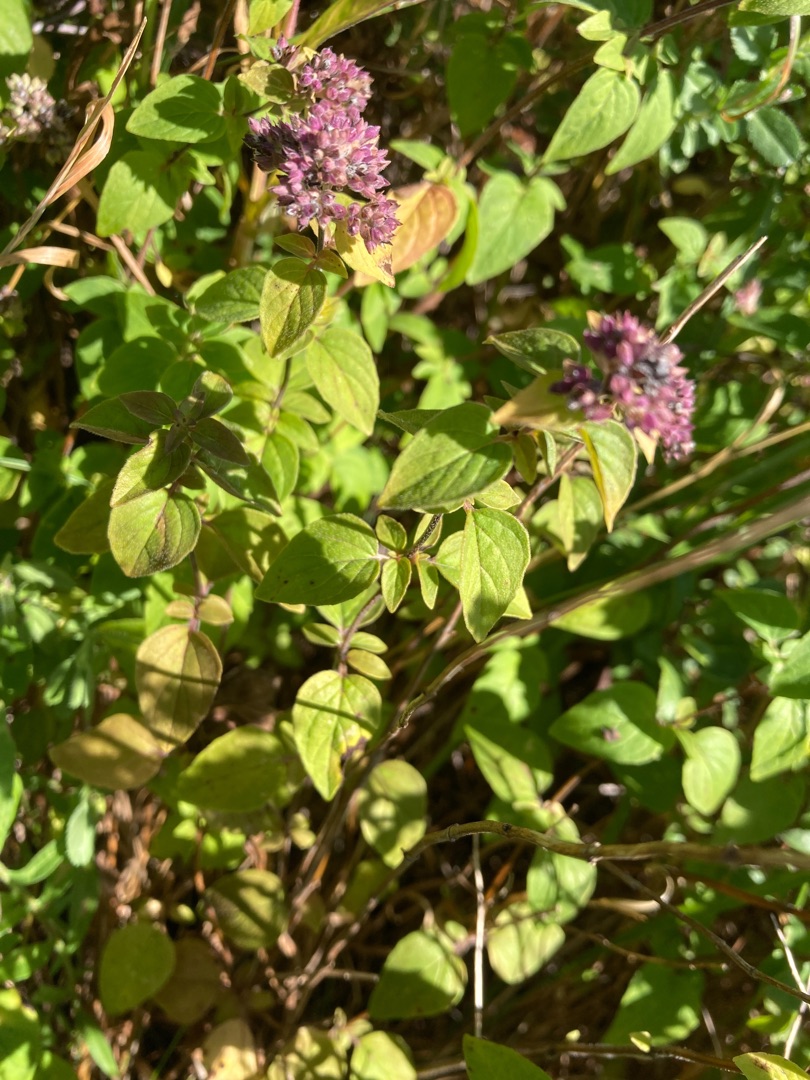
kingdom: Plantae
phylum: Tracheophyta
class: Magnoliopsida
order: Lamiales
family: Lamiaceae
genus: Origanum
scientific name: Origanum vulgare
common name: Merian
